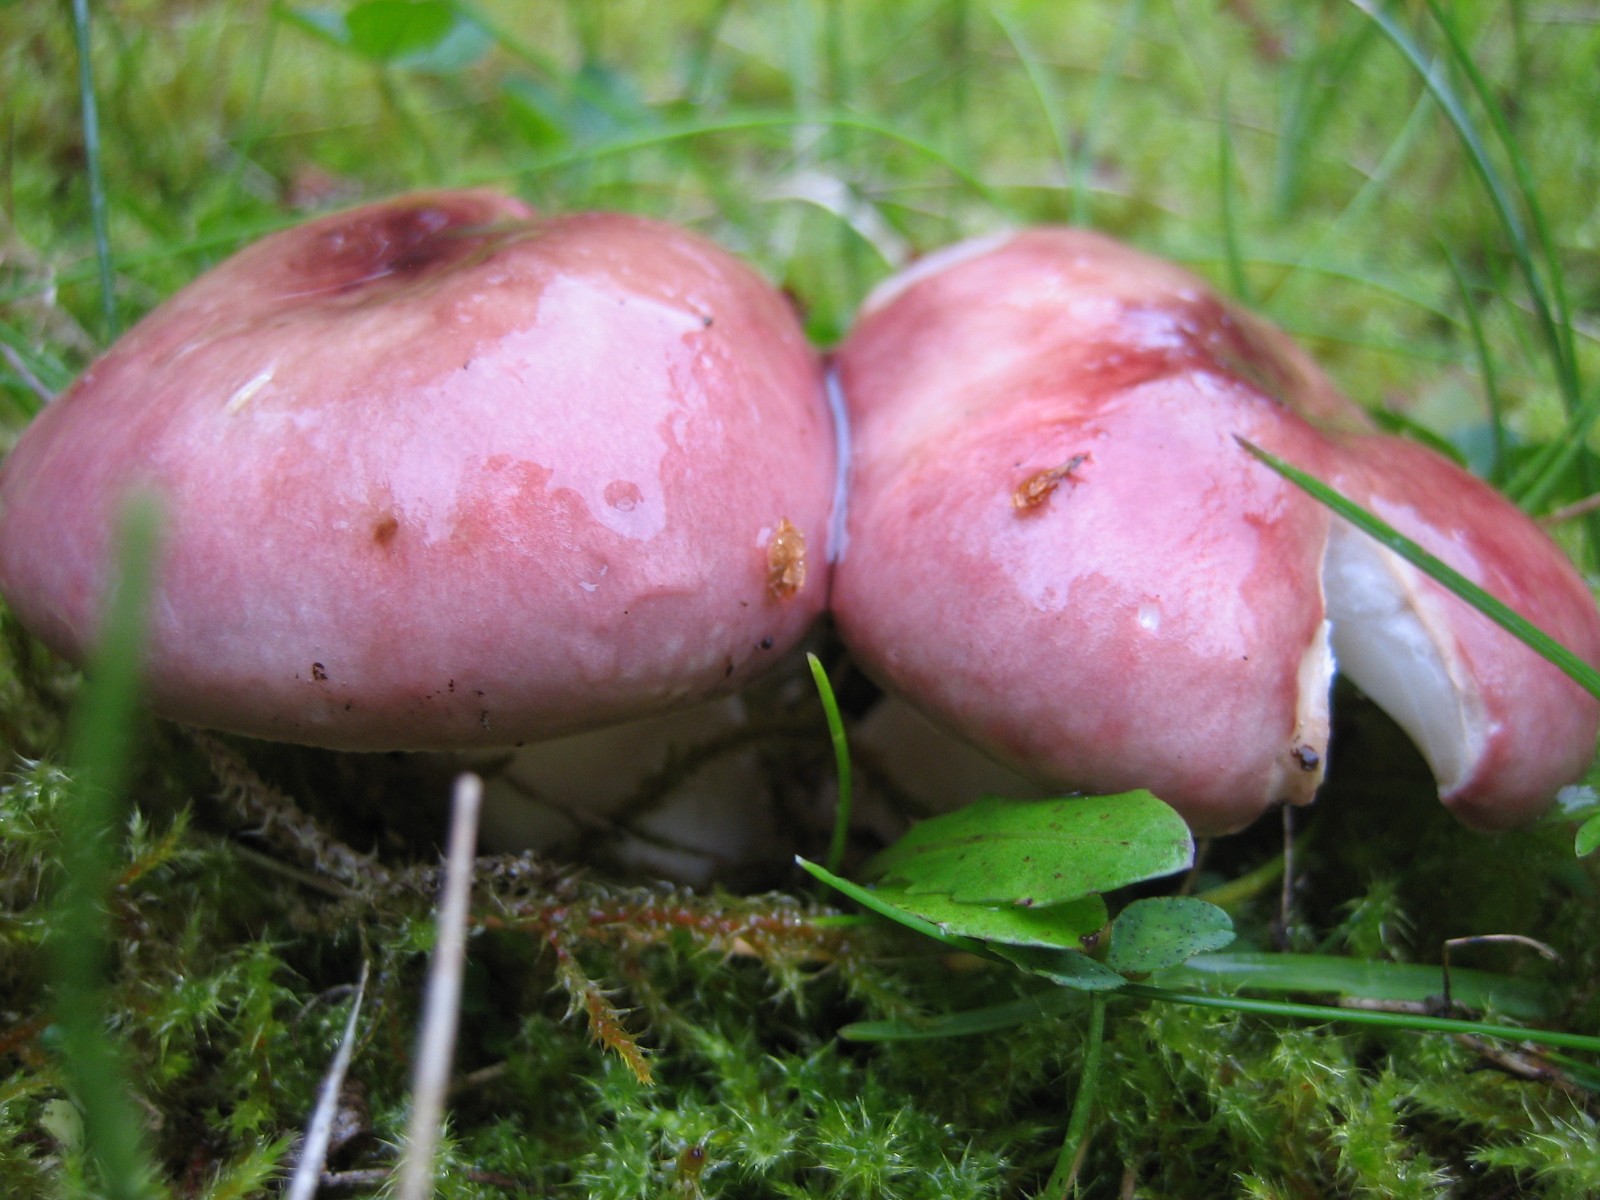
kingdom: Fungi
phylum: Basidiomycota
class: Agaricomycetes
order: Russulales
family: Russulaceae
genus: Russula
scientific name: Russula
